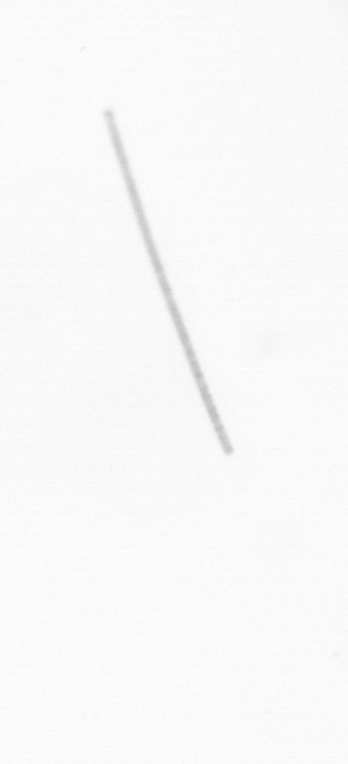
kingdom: Chromista
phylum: Ochrophyta
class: Bacillariophyceae
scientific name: Bacillariophyceae
